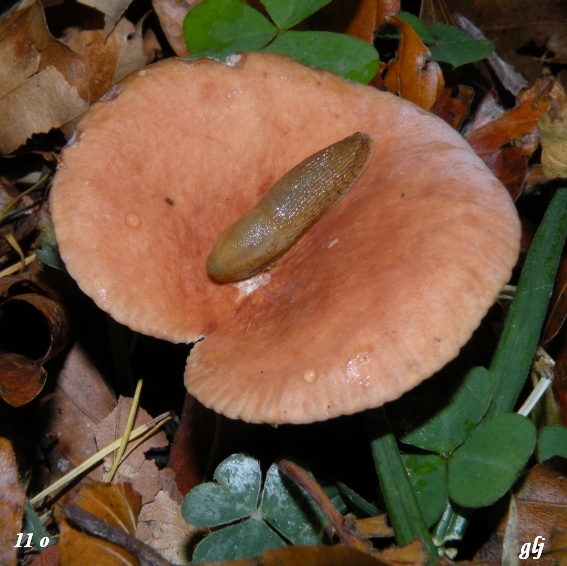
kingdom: Fungi
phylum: Basidiomycota
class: Agaricomycetes
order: Russulales
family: Russulaceae
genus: Lactarius
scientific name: Lactarius subdulcis
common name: sødlig mælkehat
